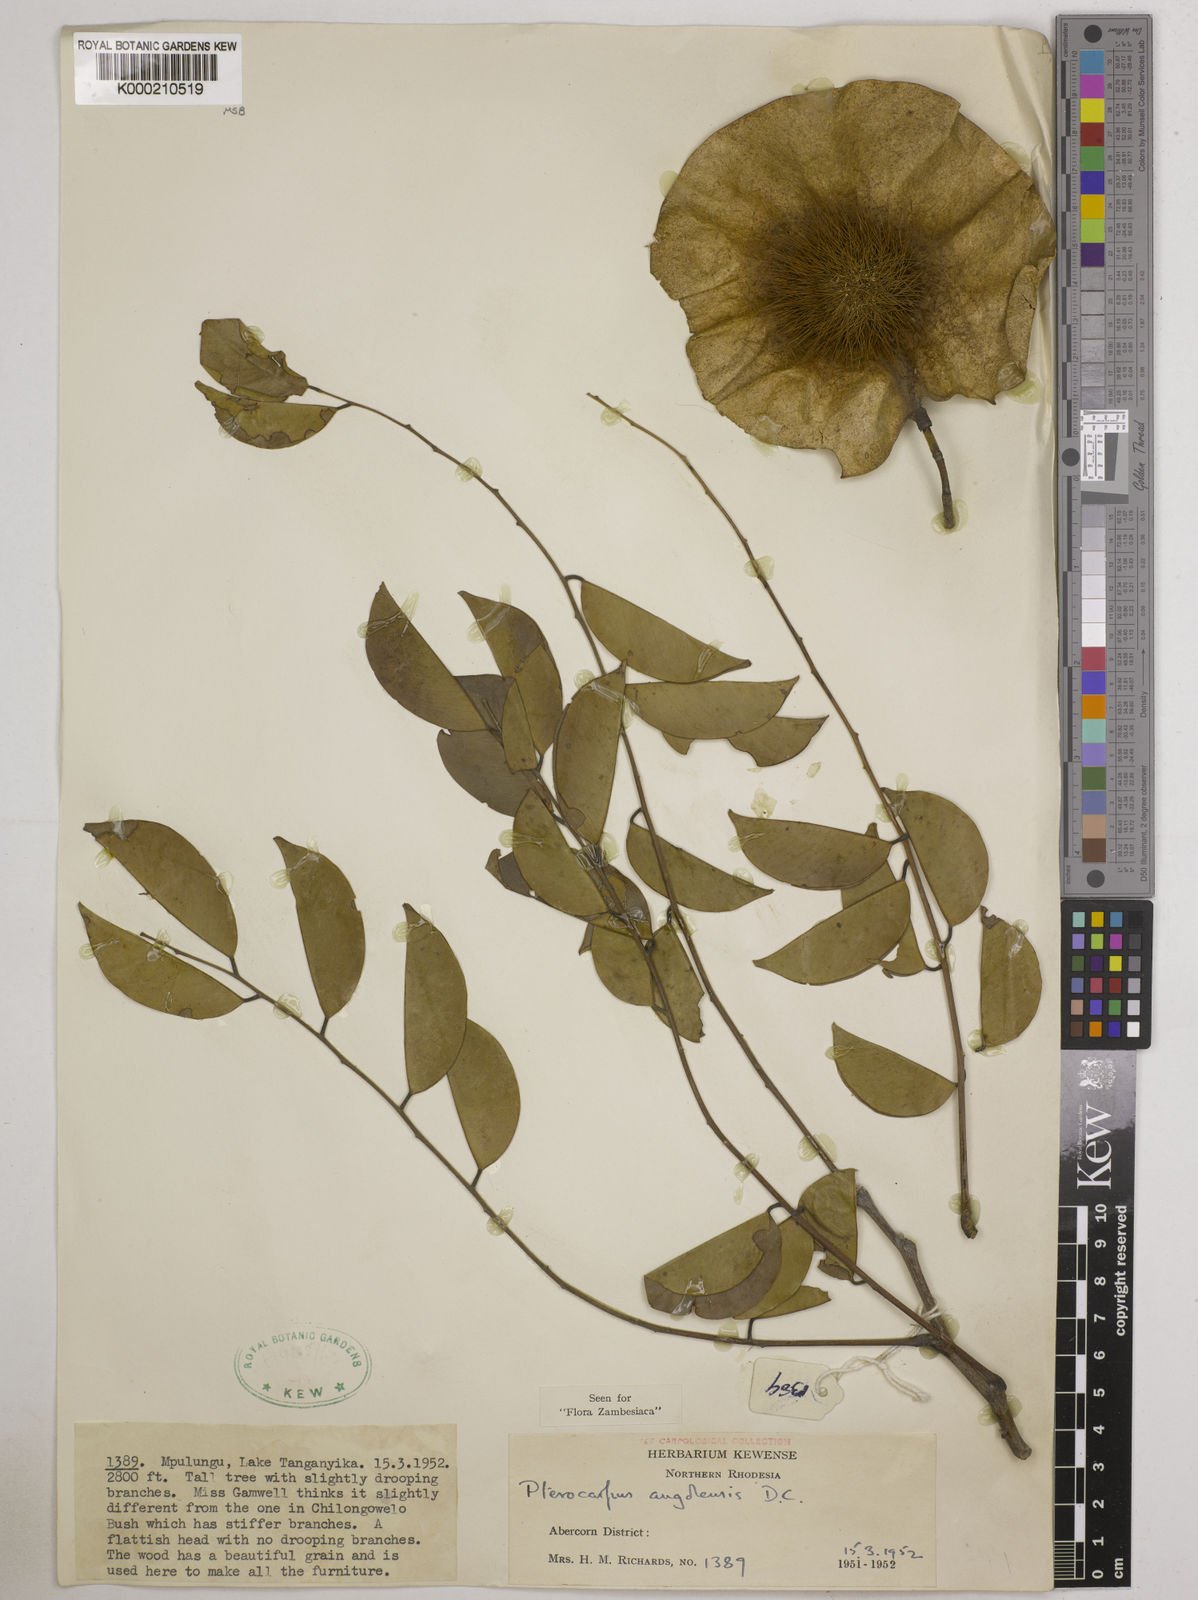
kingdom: Plantae
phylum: Tracheophyta
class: Magnoliopsida
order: Fabales
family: Fabaceae
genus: Pterocarpus
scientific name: Pterocarpus angolensis
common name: Bloodwood tree
